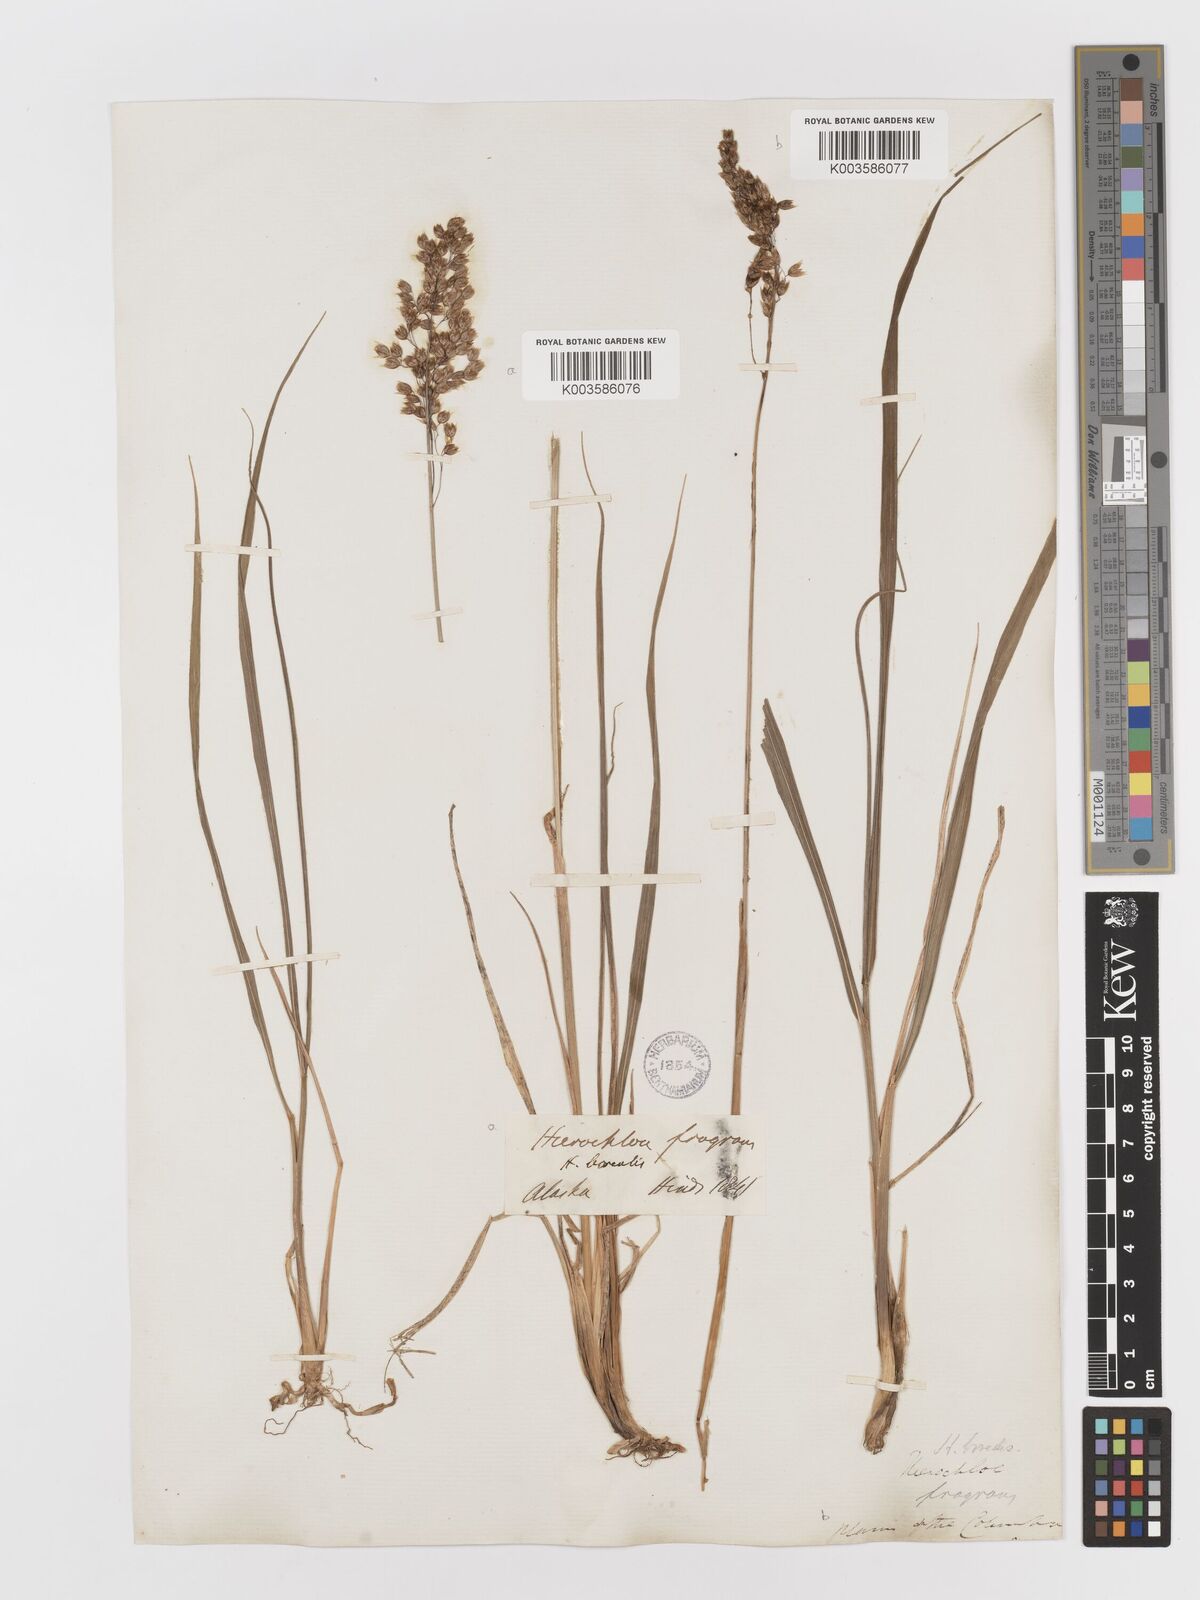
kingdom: Plantae
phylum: Tracheophyta
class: Liliopsida
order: Poales
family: Poaceae
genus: Anthoxanthum
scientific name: Anthoxanthum nitens
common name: Holy grass
